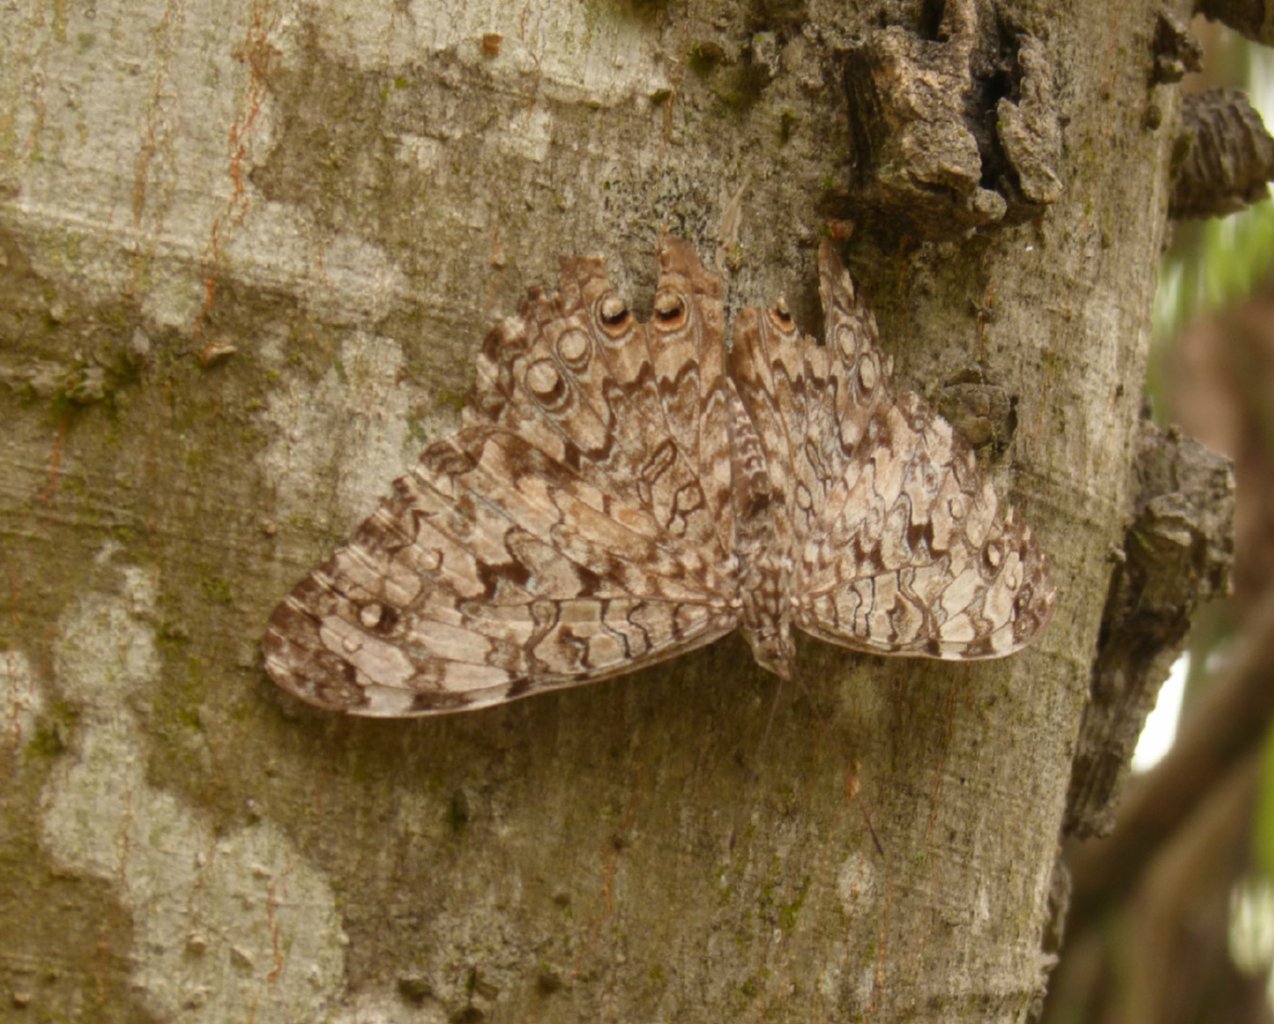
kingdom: Animalia
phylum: Arthropoda
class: Insecta
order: Lepidoptera
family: Nymphalidae
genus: Hamadryas
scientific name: Hamadryas februa
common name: Gray Cracker
